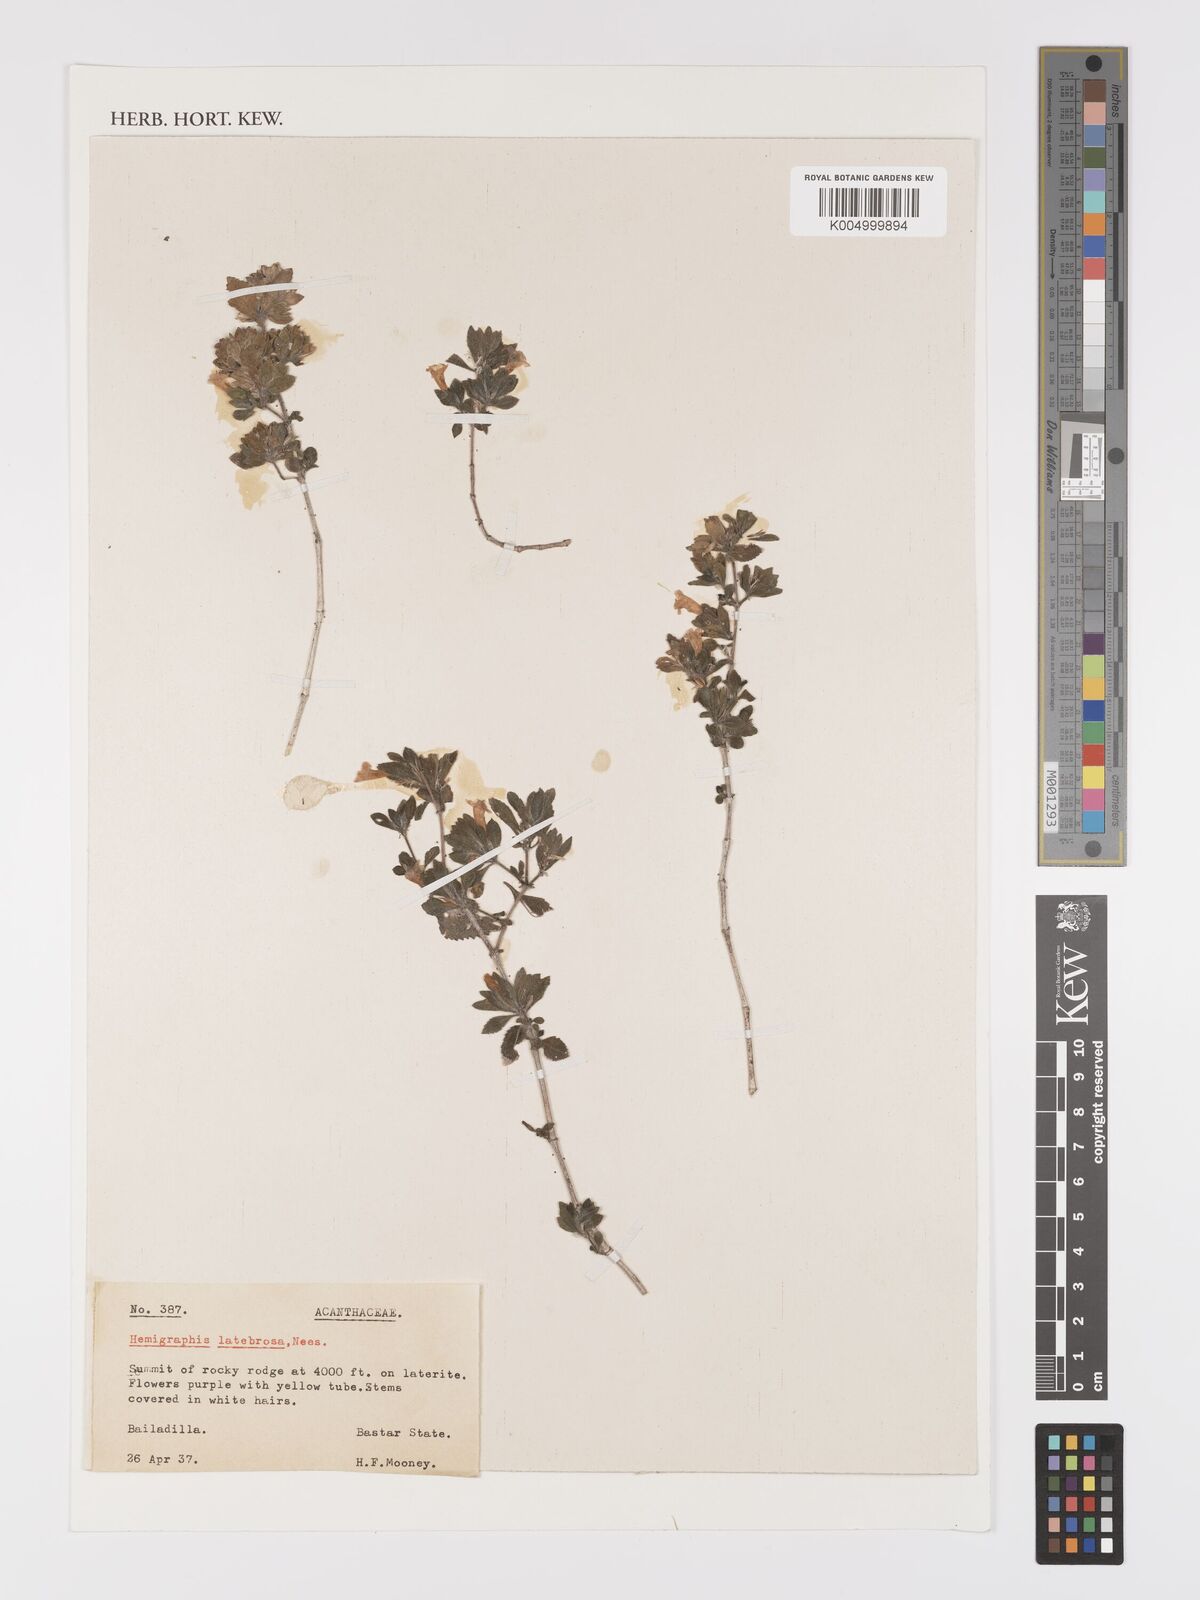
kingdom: Plantae
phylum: Tracheophyta
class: Magnoliopsida
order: Lamiales
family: Acanthaceae
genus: Strobilanthes
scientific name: Strobilanthes latebrosa
